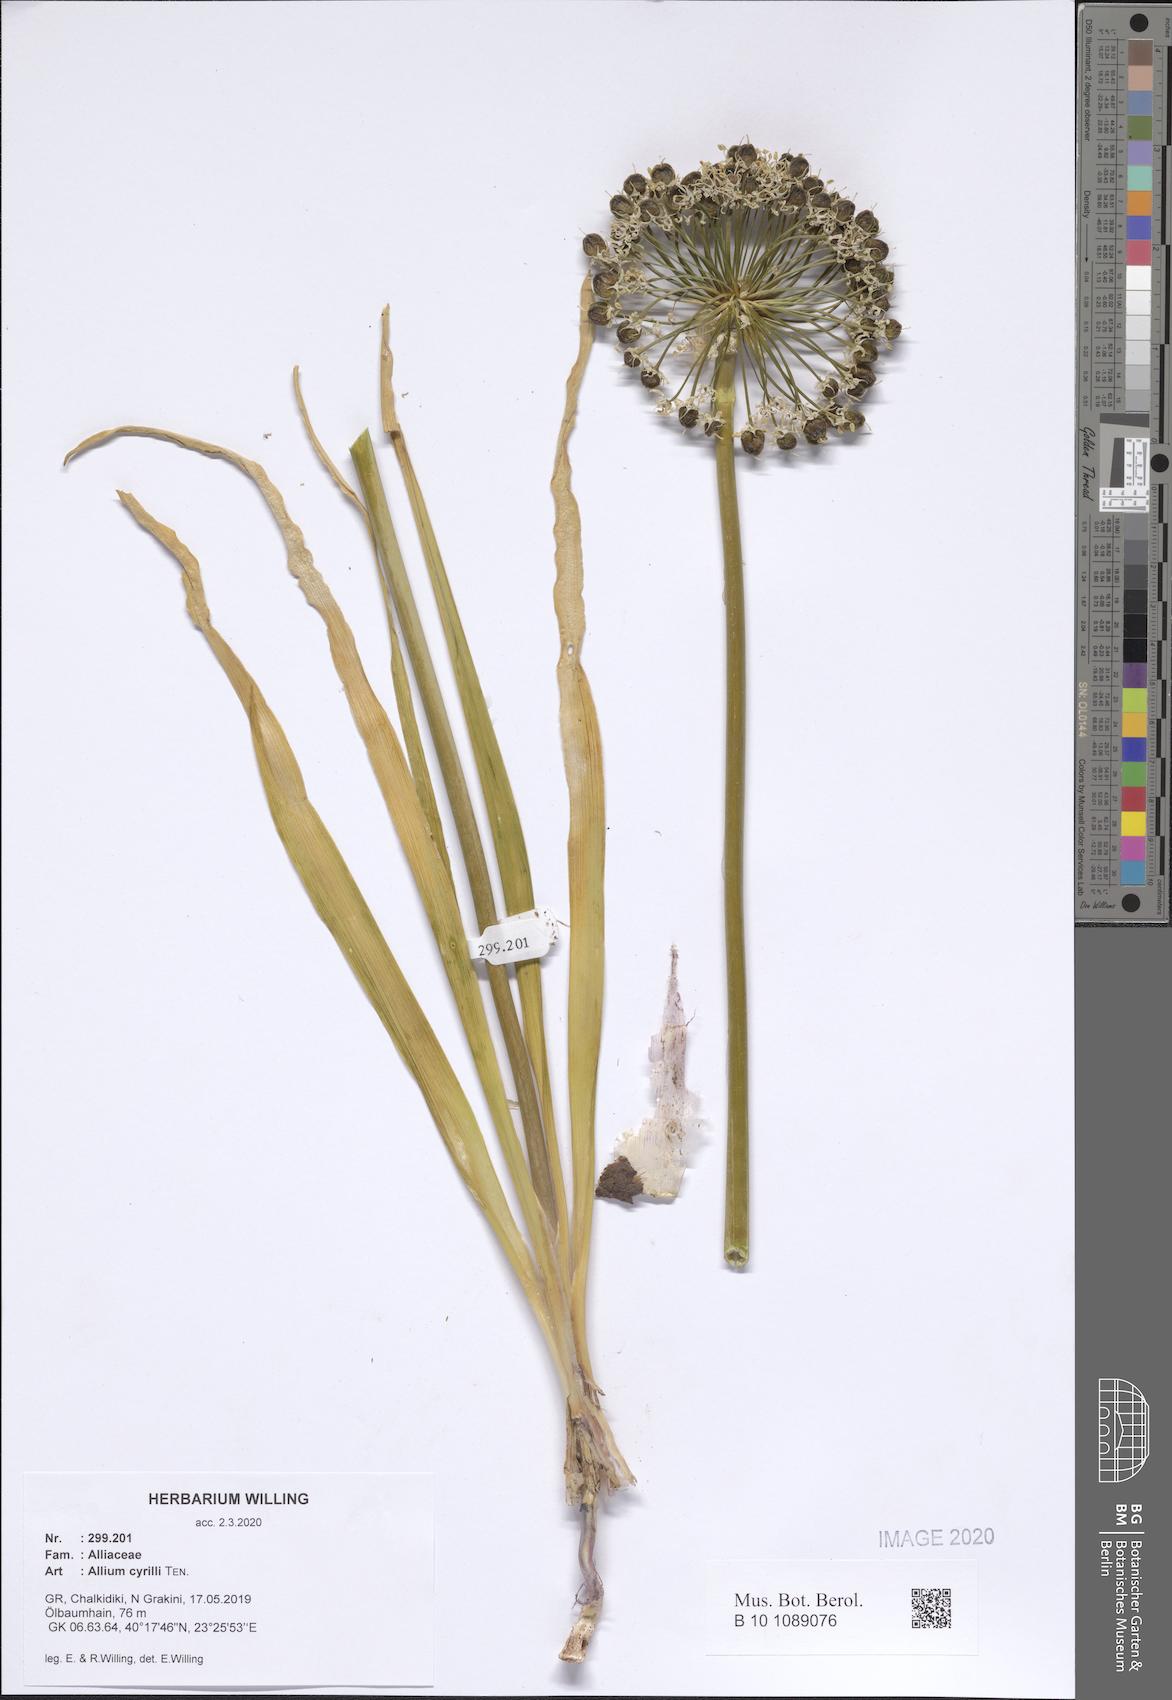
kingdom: Plantae
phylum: Tracheophyta
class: Liliopsida
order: Asparagales
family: Amaryllidaceae
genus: Allium
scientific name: Allium cyrilli
